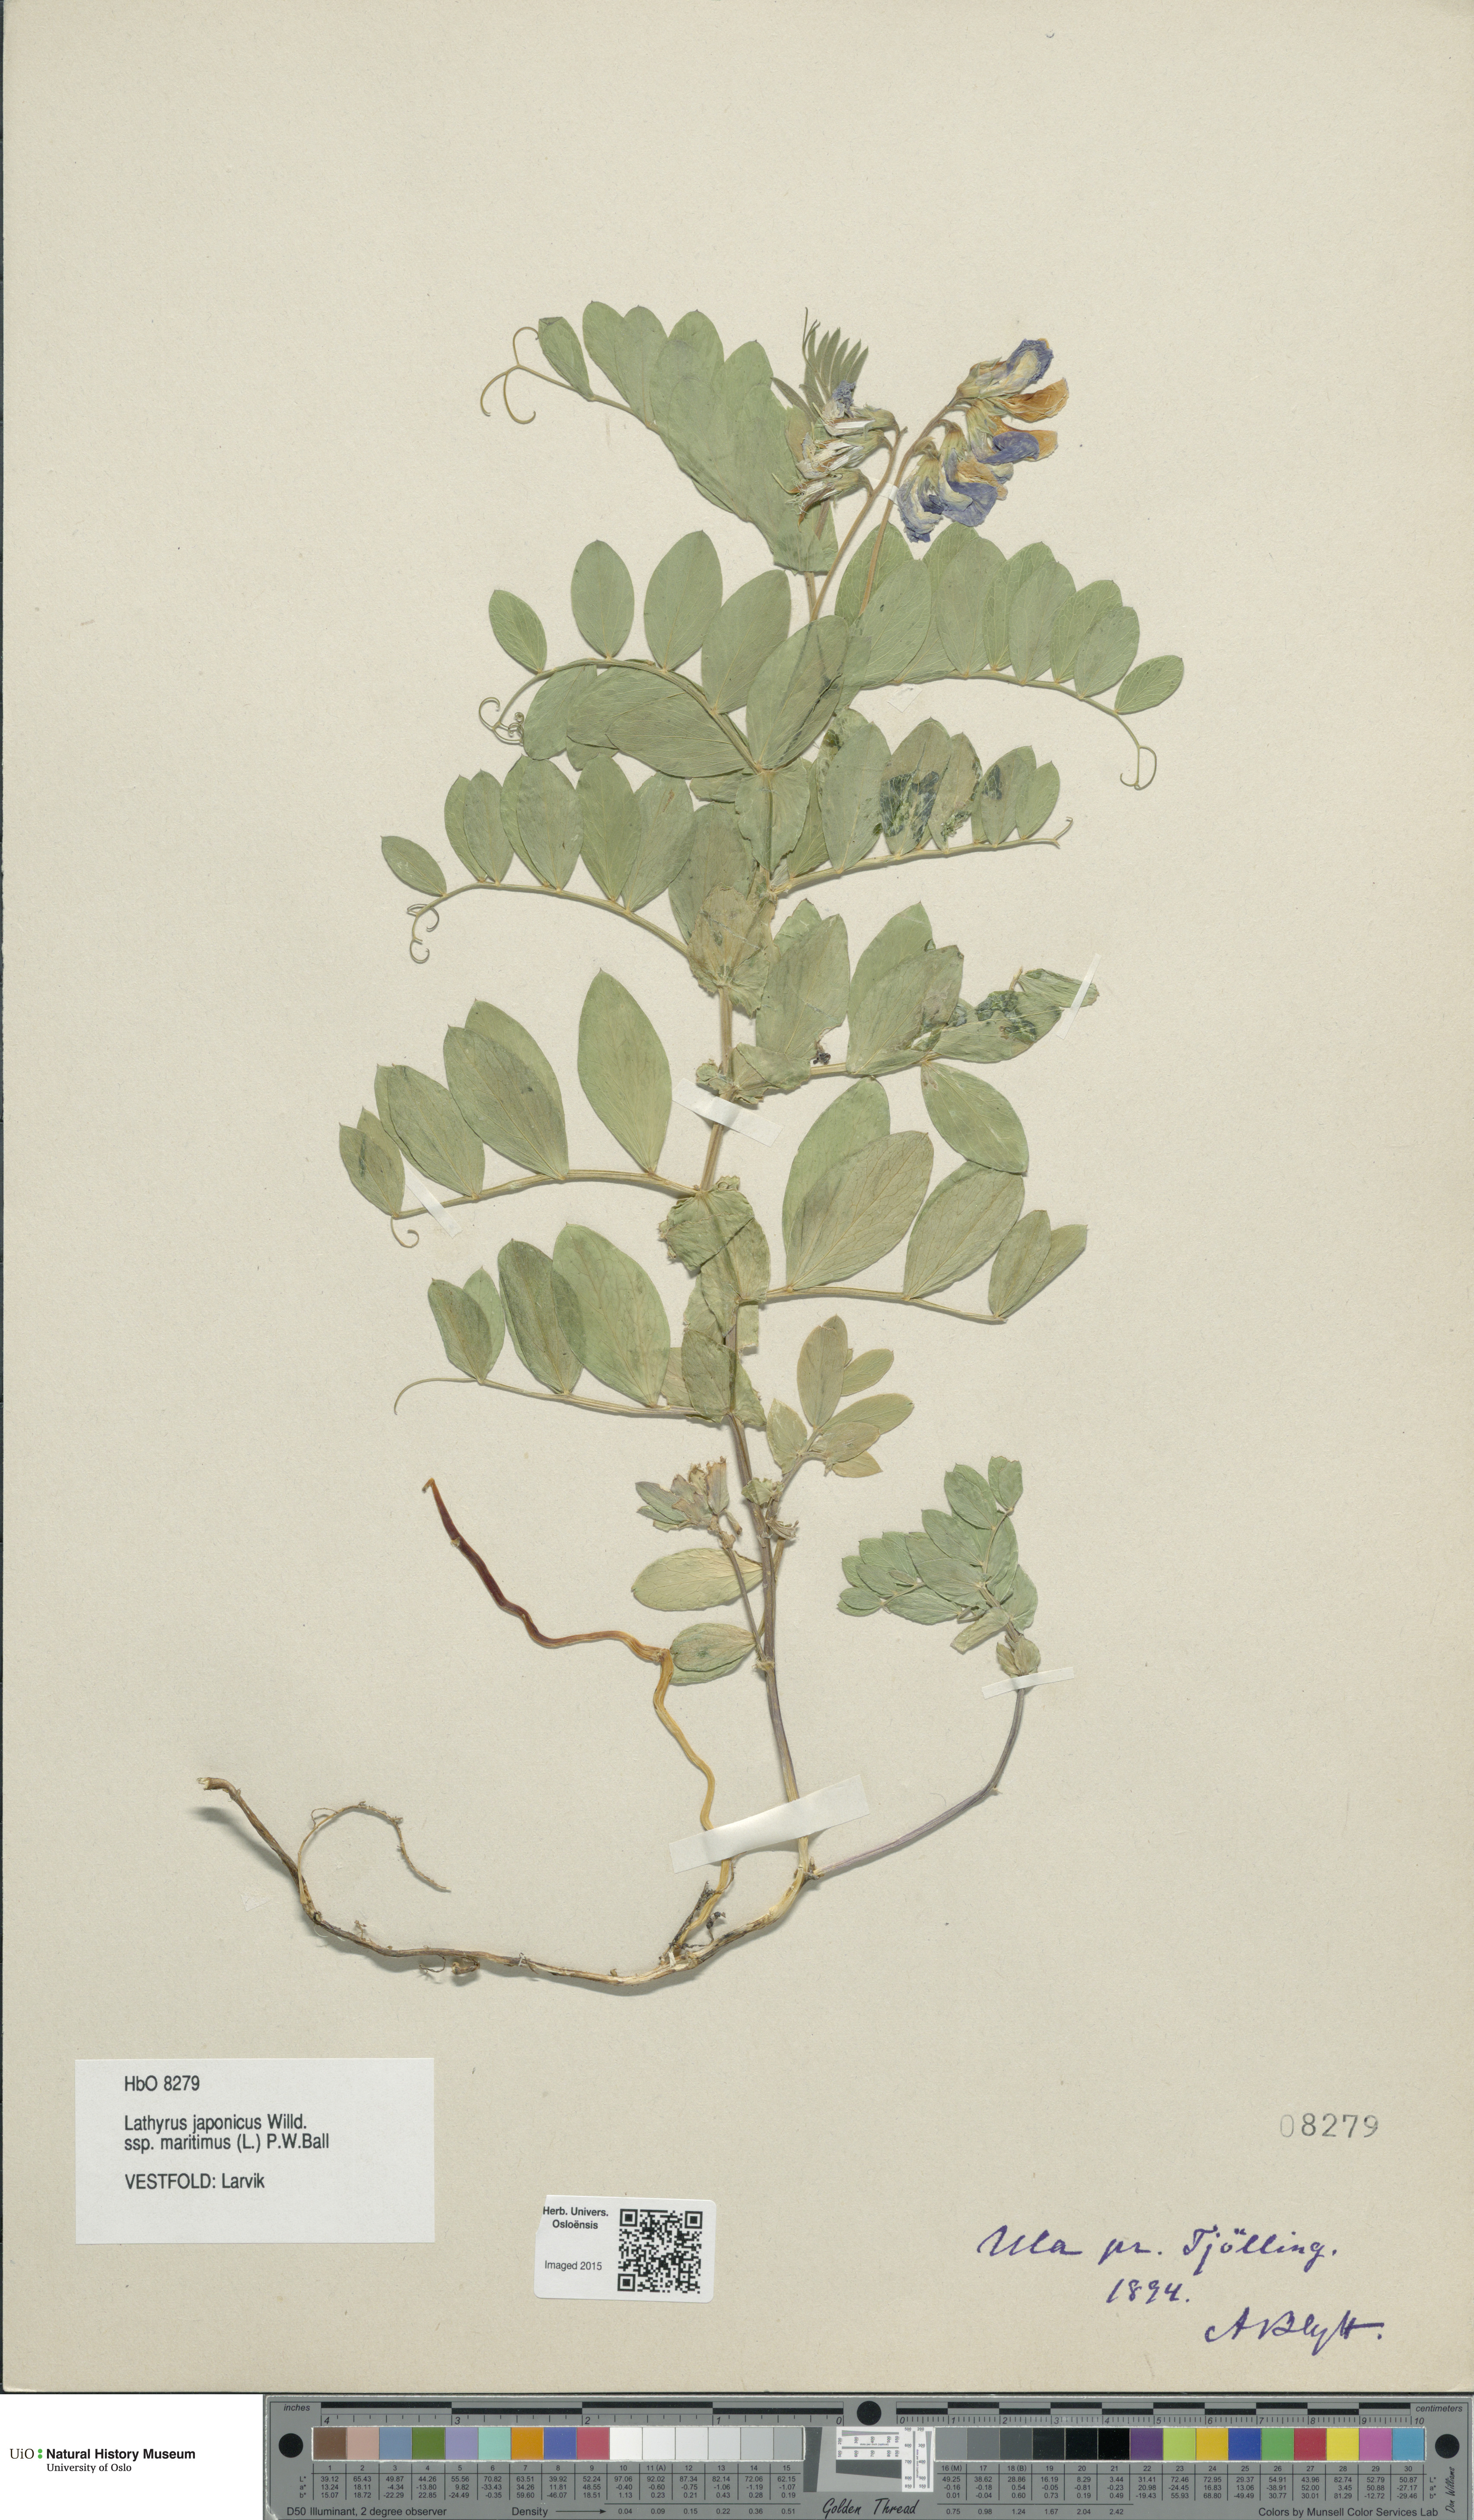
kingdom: Plantae
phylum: Tracheophyta
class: Magnoliopsida
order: Fabales
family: Fabaceae
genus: Lathyrus
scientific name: Lathyrus japonicus
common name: Sea pea
